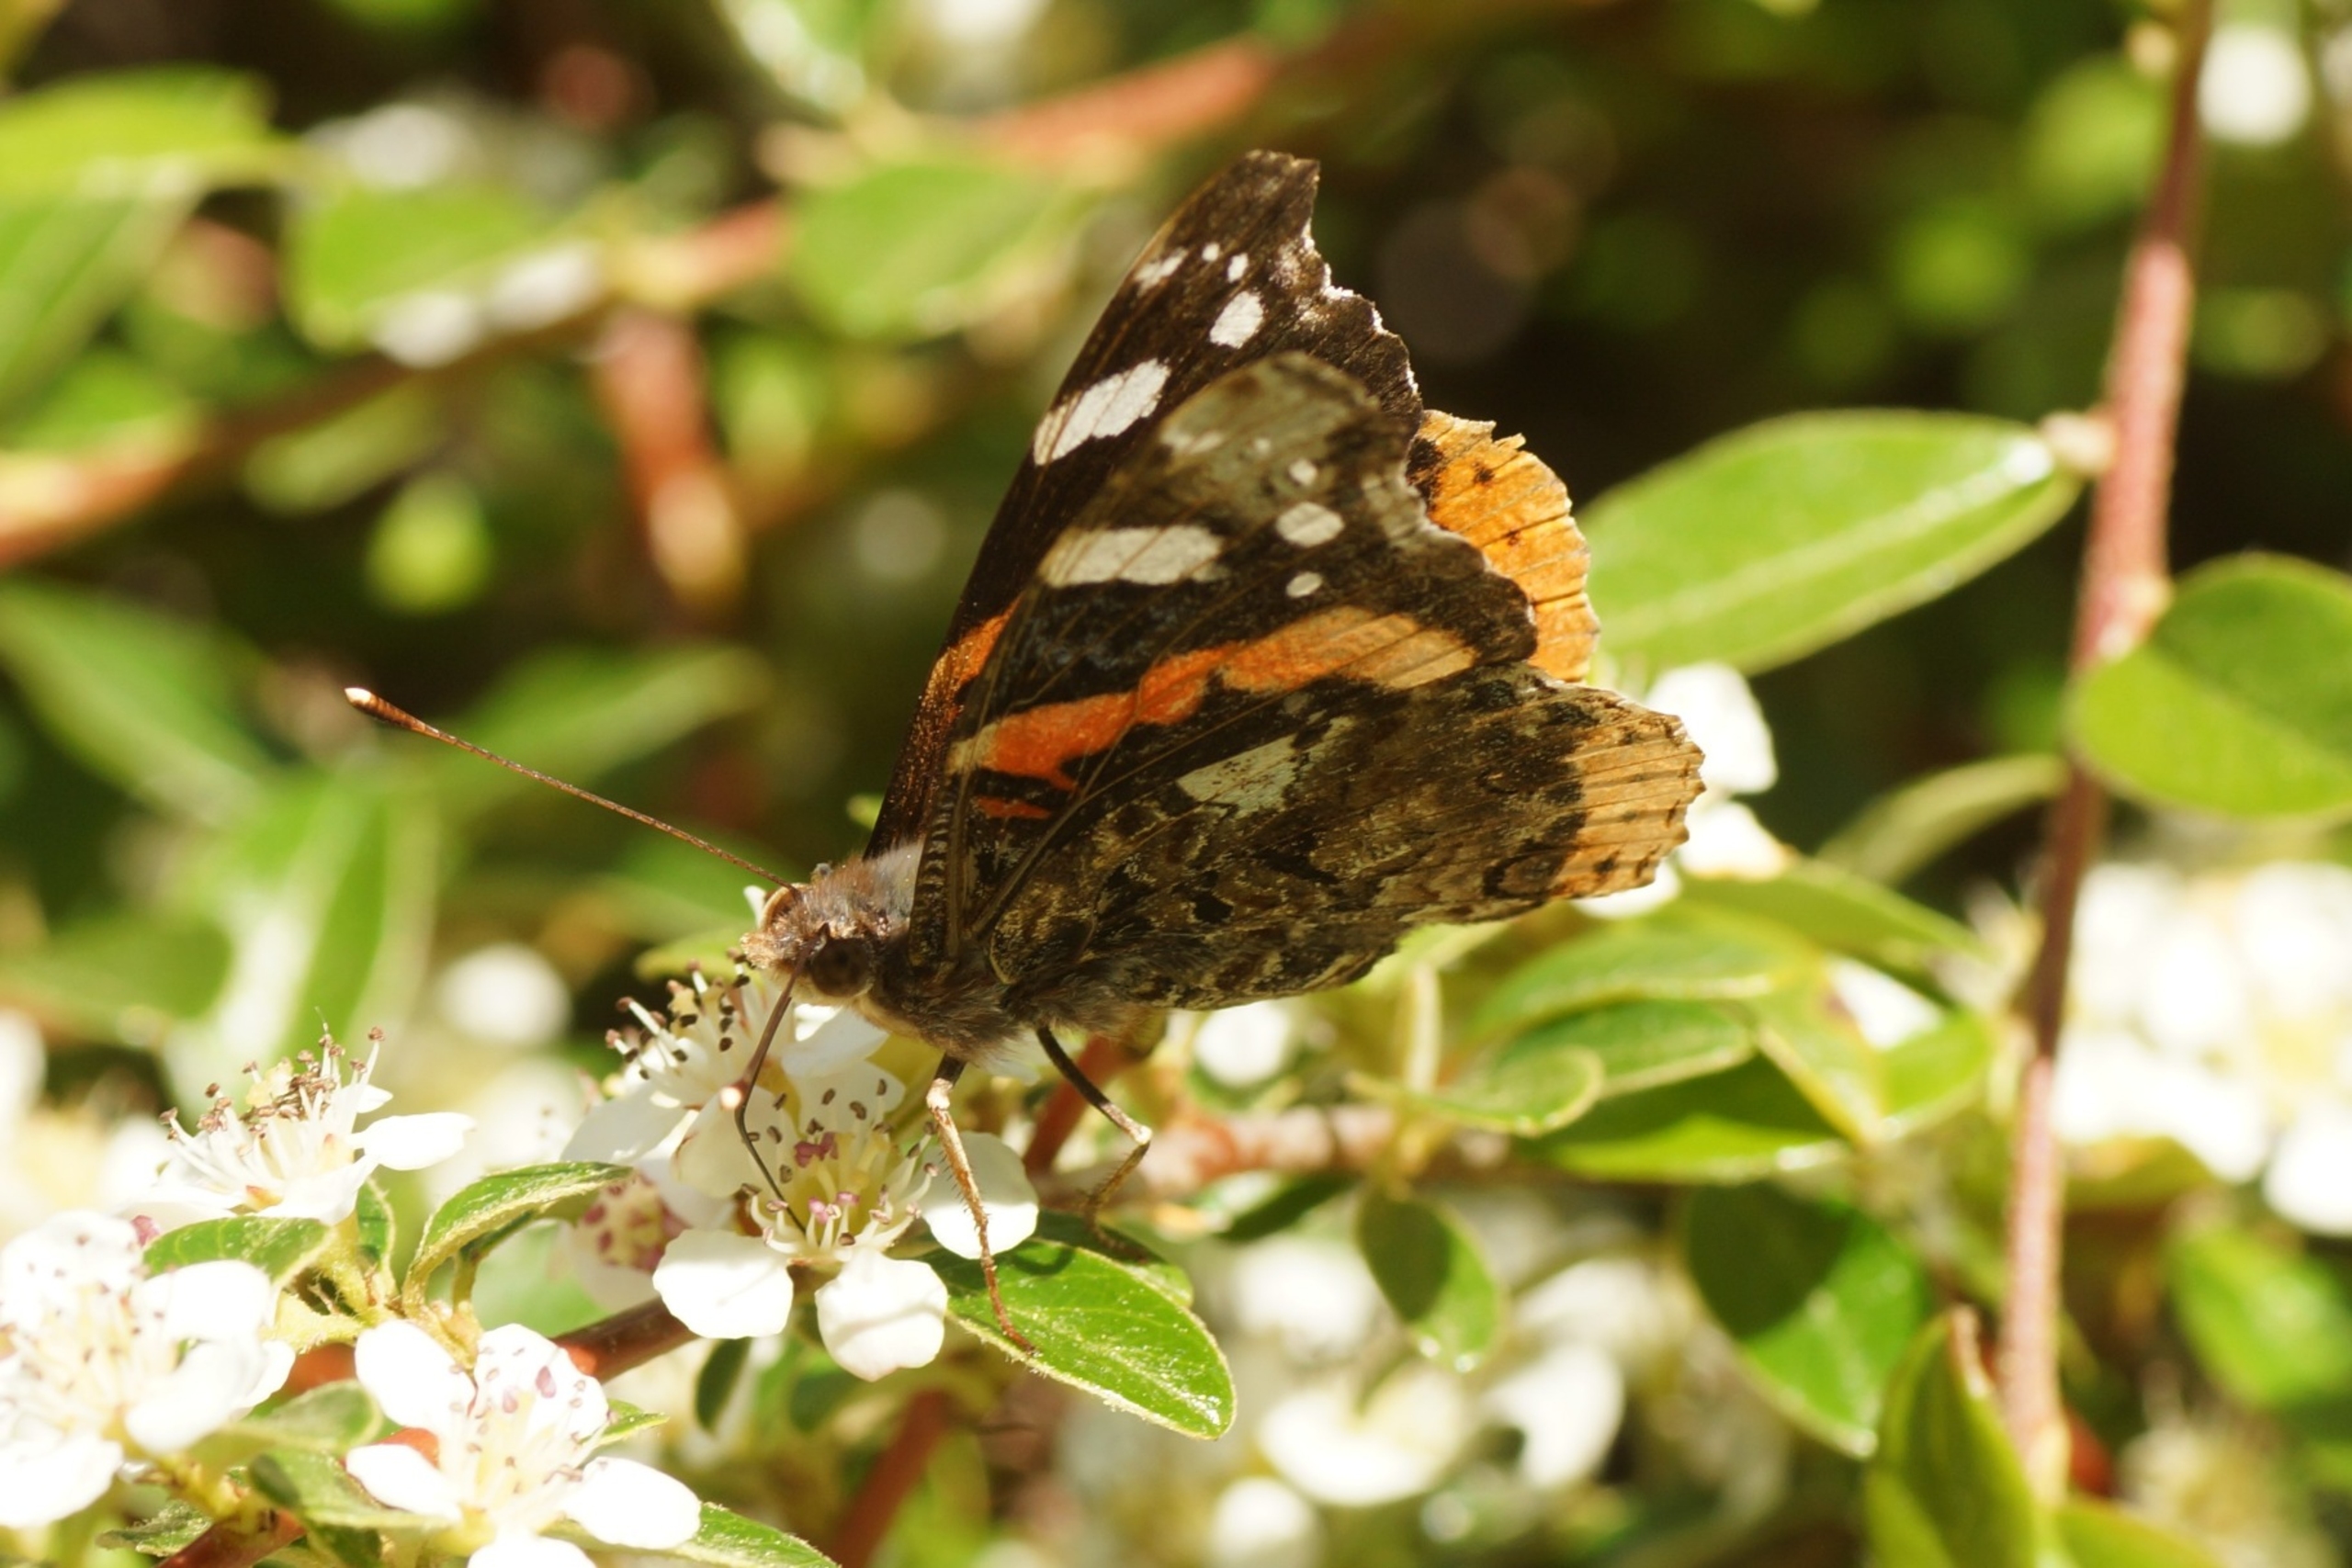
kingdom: Animalia
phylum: Arthropoda
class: Insecta
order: Lepidoptera
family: Nymphalidae
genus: Vanessa
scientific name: Vanessa atalanta
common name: Admiral
